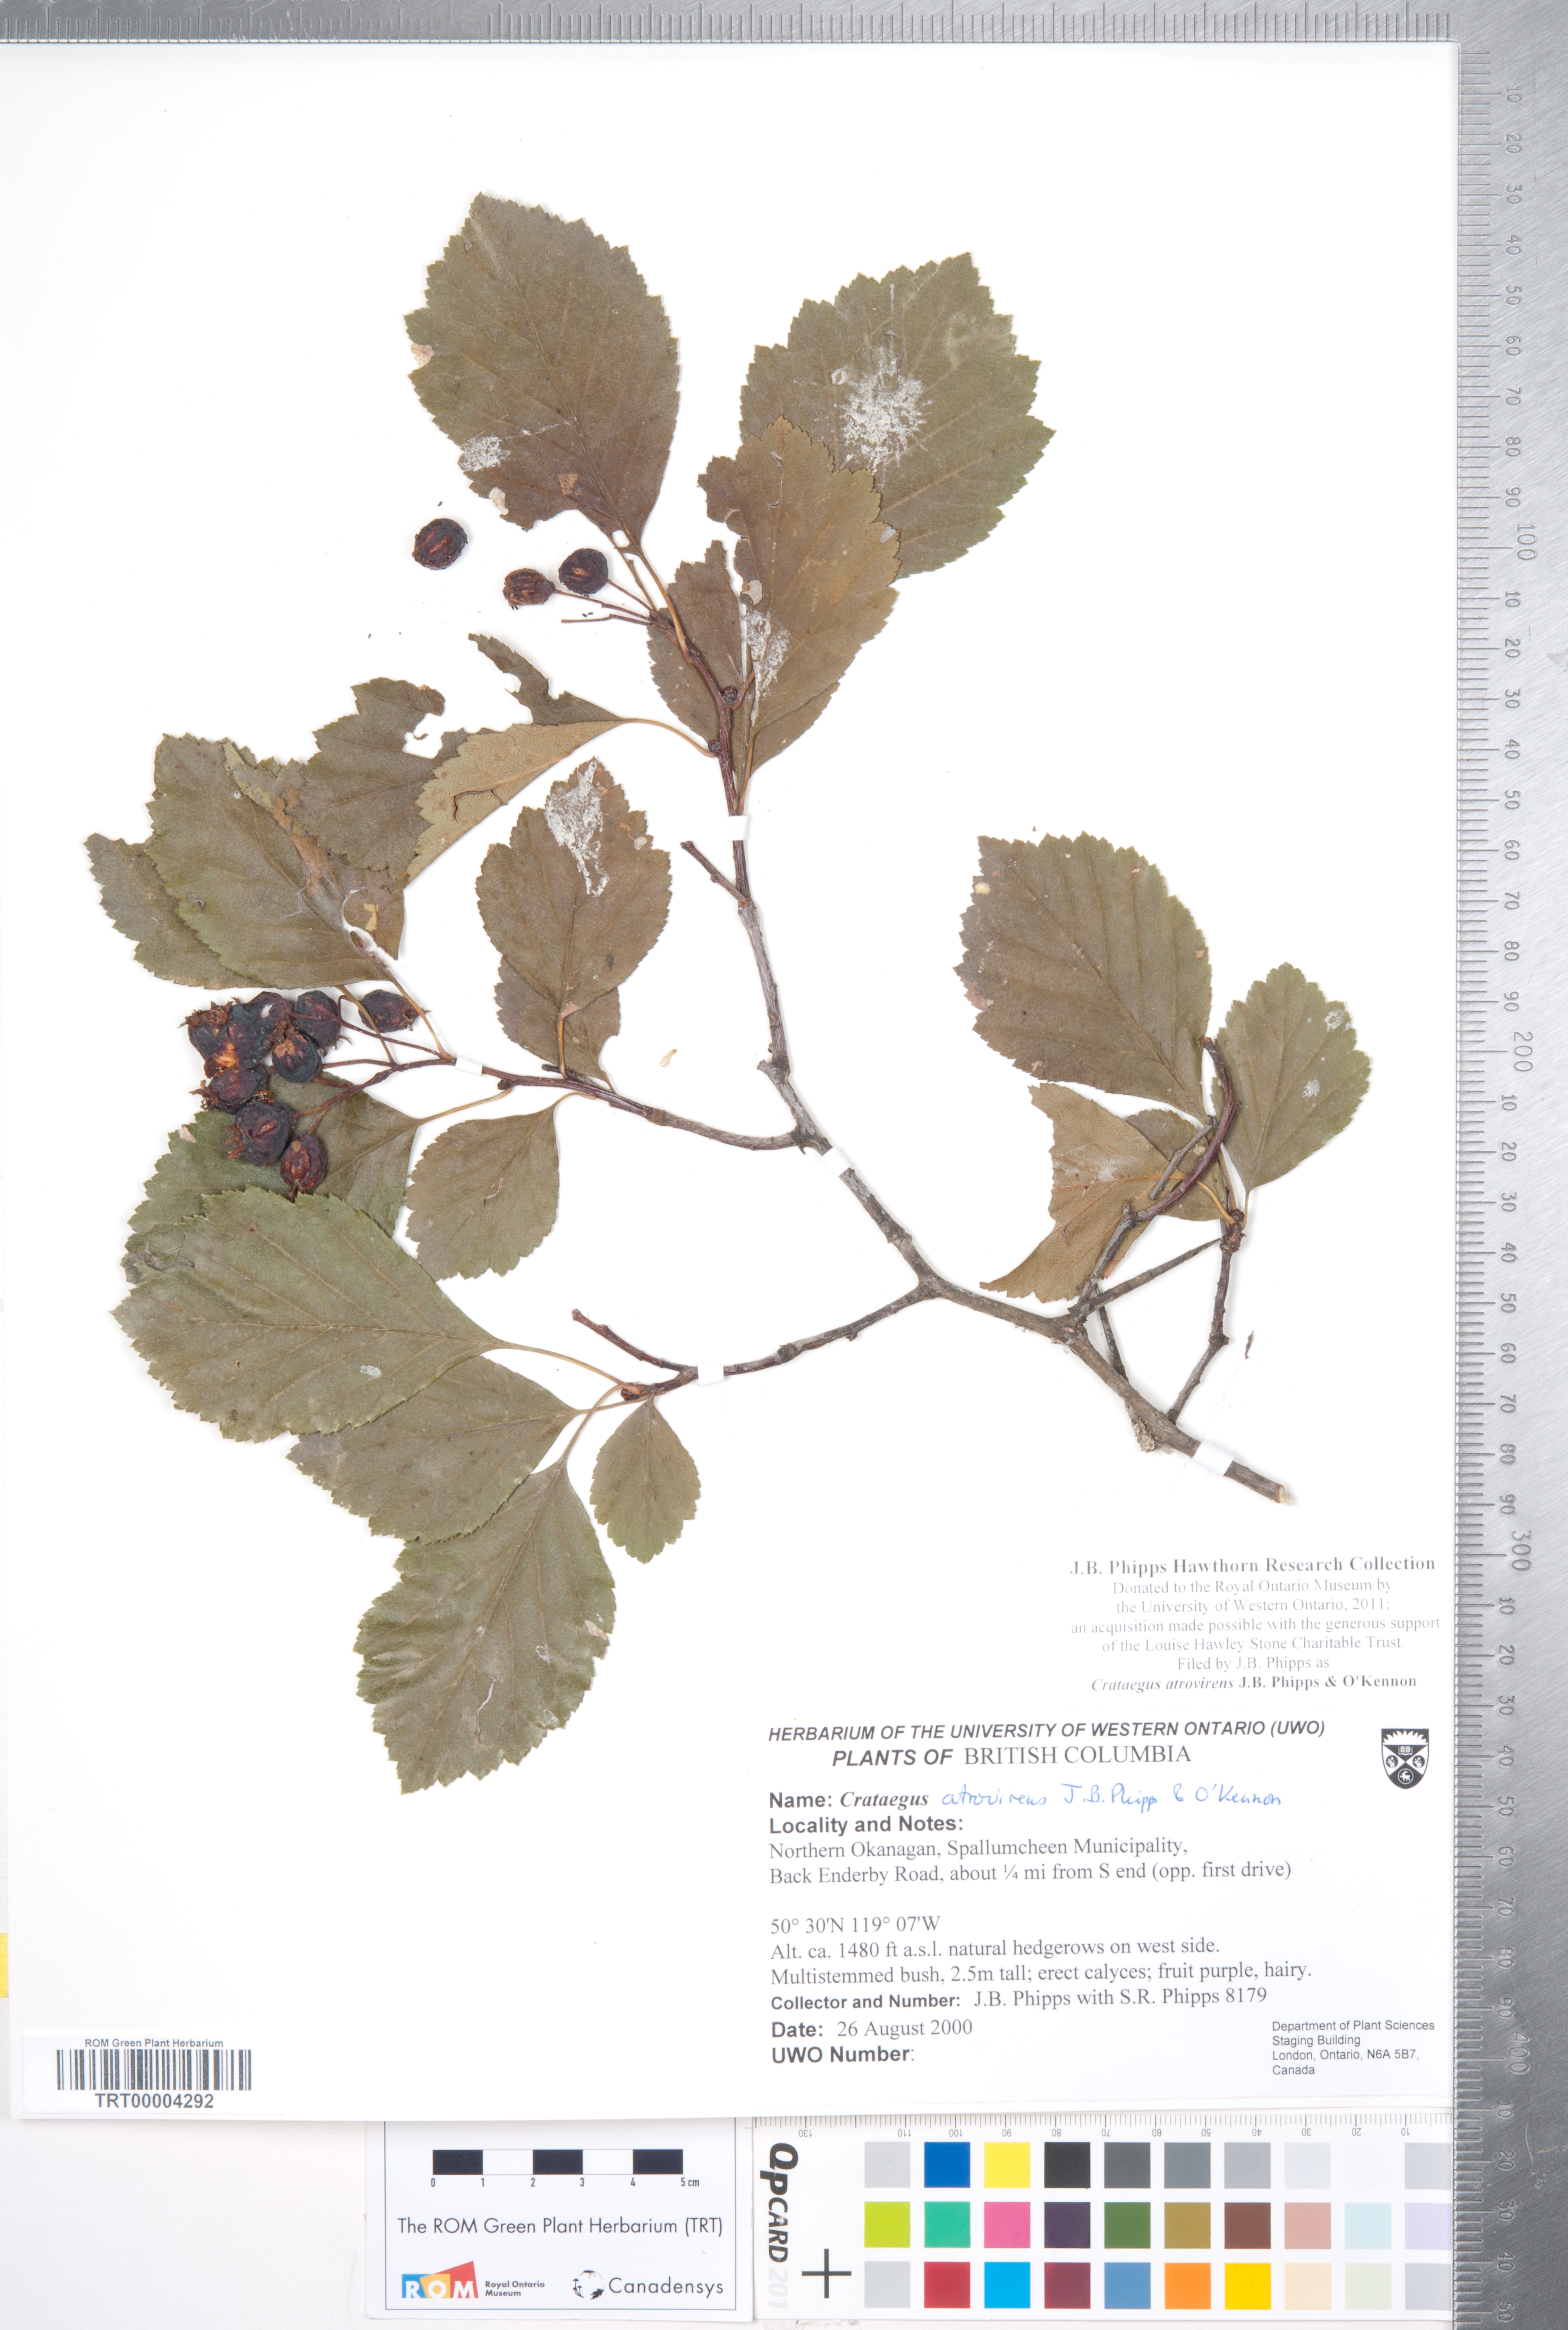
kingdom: Plantae
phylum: Tracheophyta
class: Magnoliopsida
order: Rosales
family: Rosaceae
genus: Crataegus
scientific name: Crataegus atrovirens
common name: Dark green hawthorn
